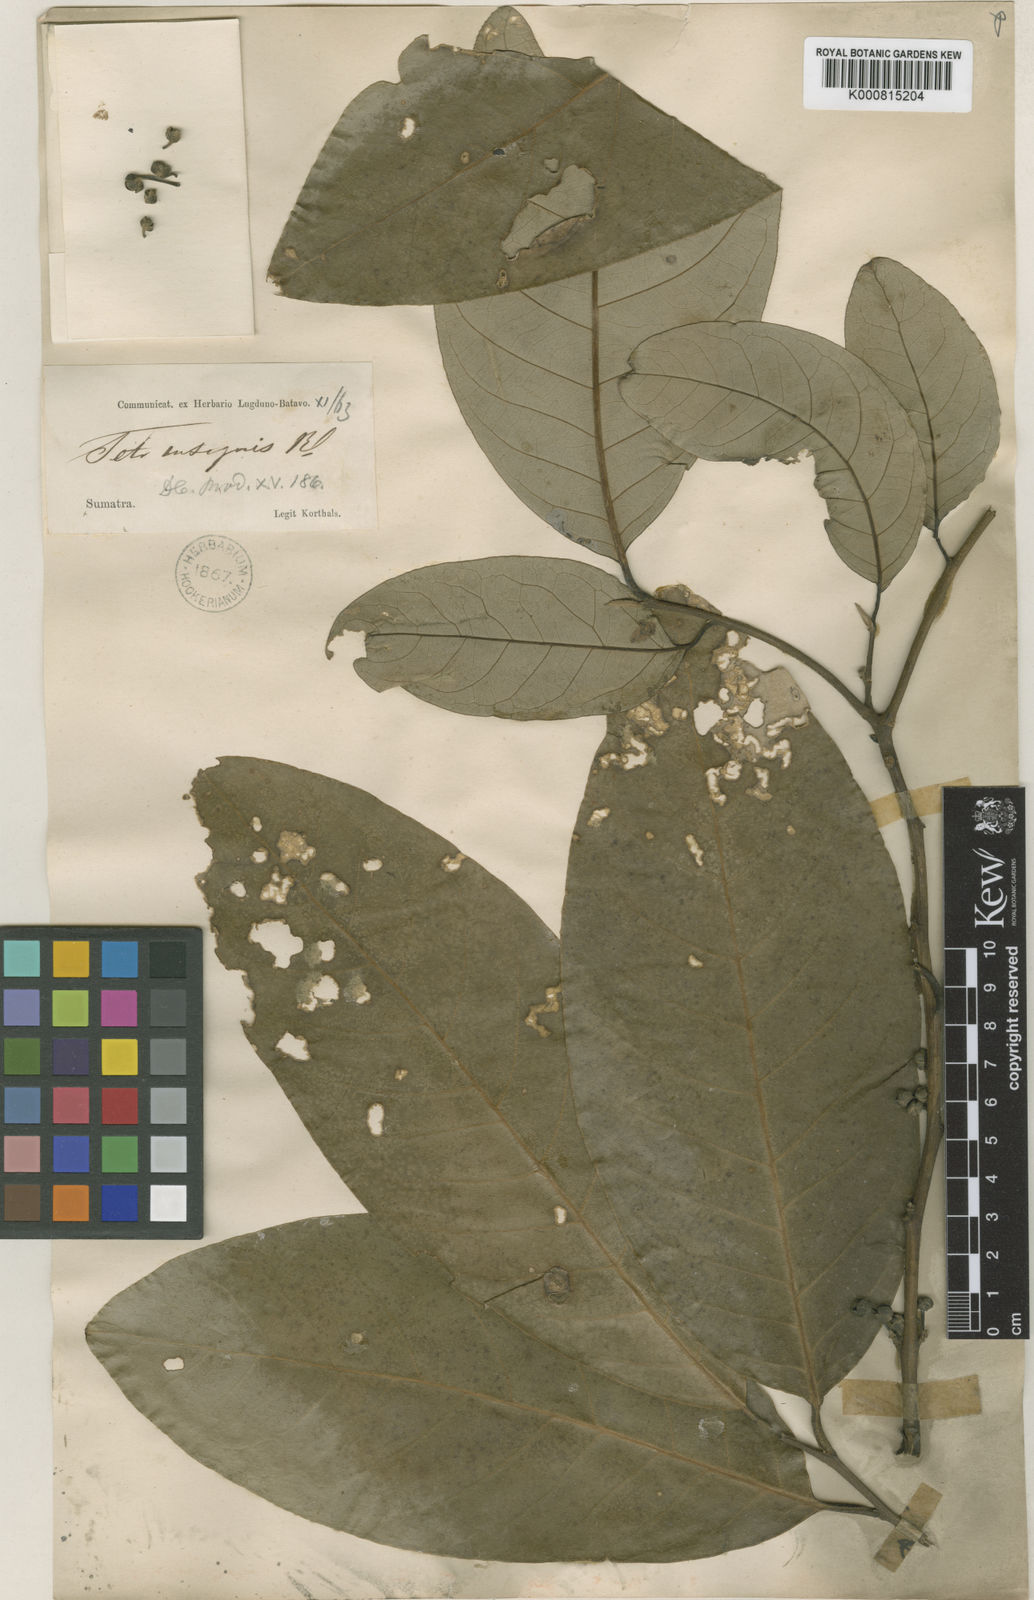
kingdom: Plantae
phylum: Tracheophyta
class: Magnoliopsida
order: Laurales
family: Lauraceae
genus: Litsea
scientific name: Litsea keralana
